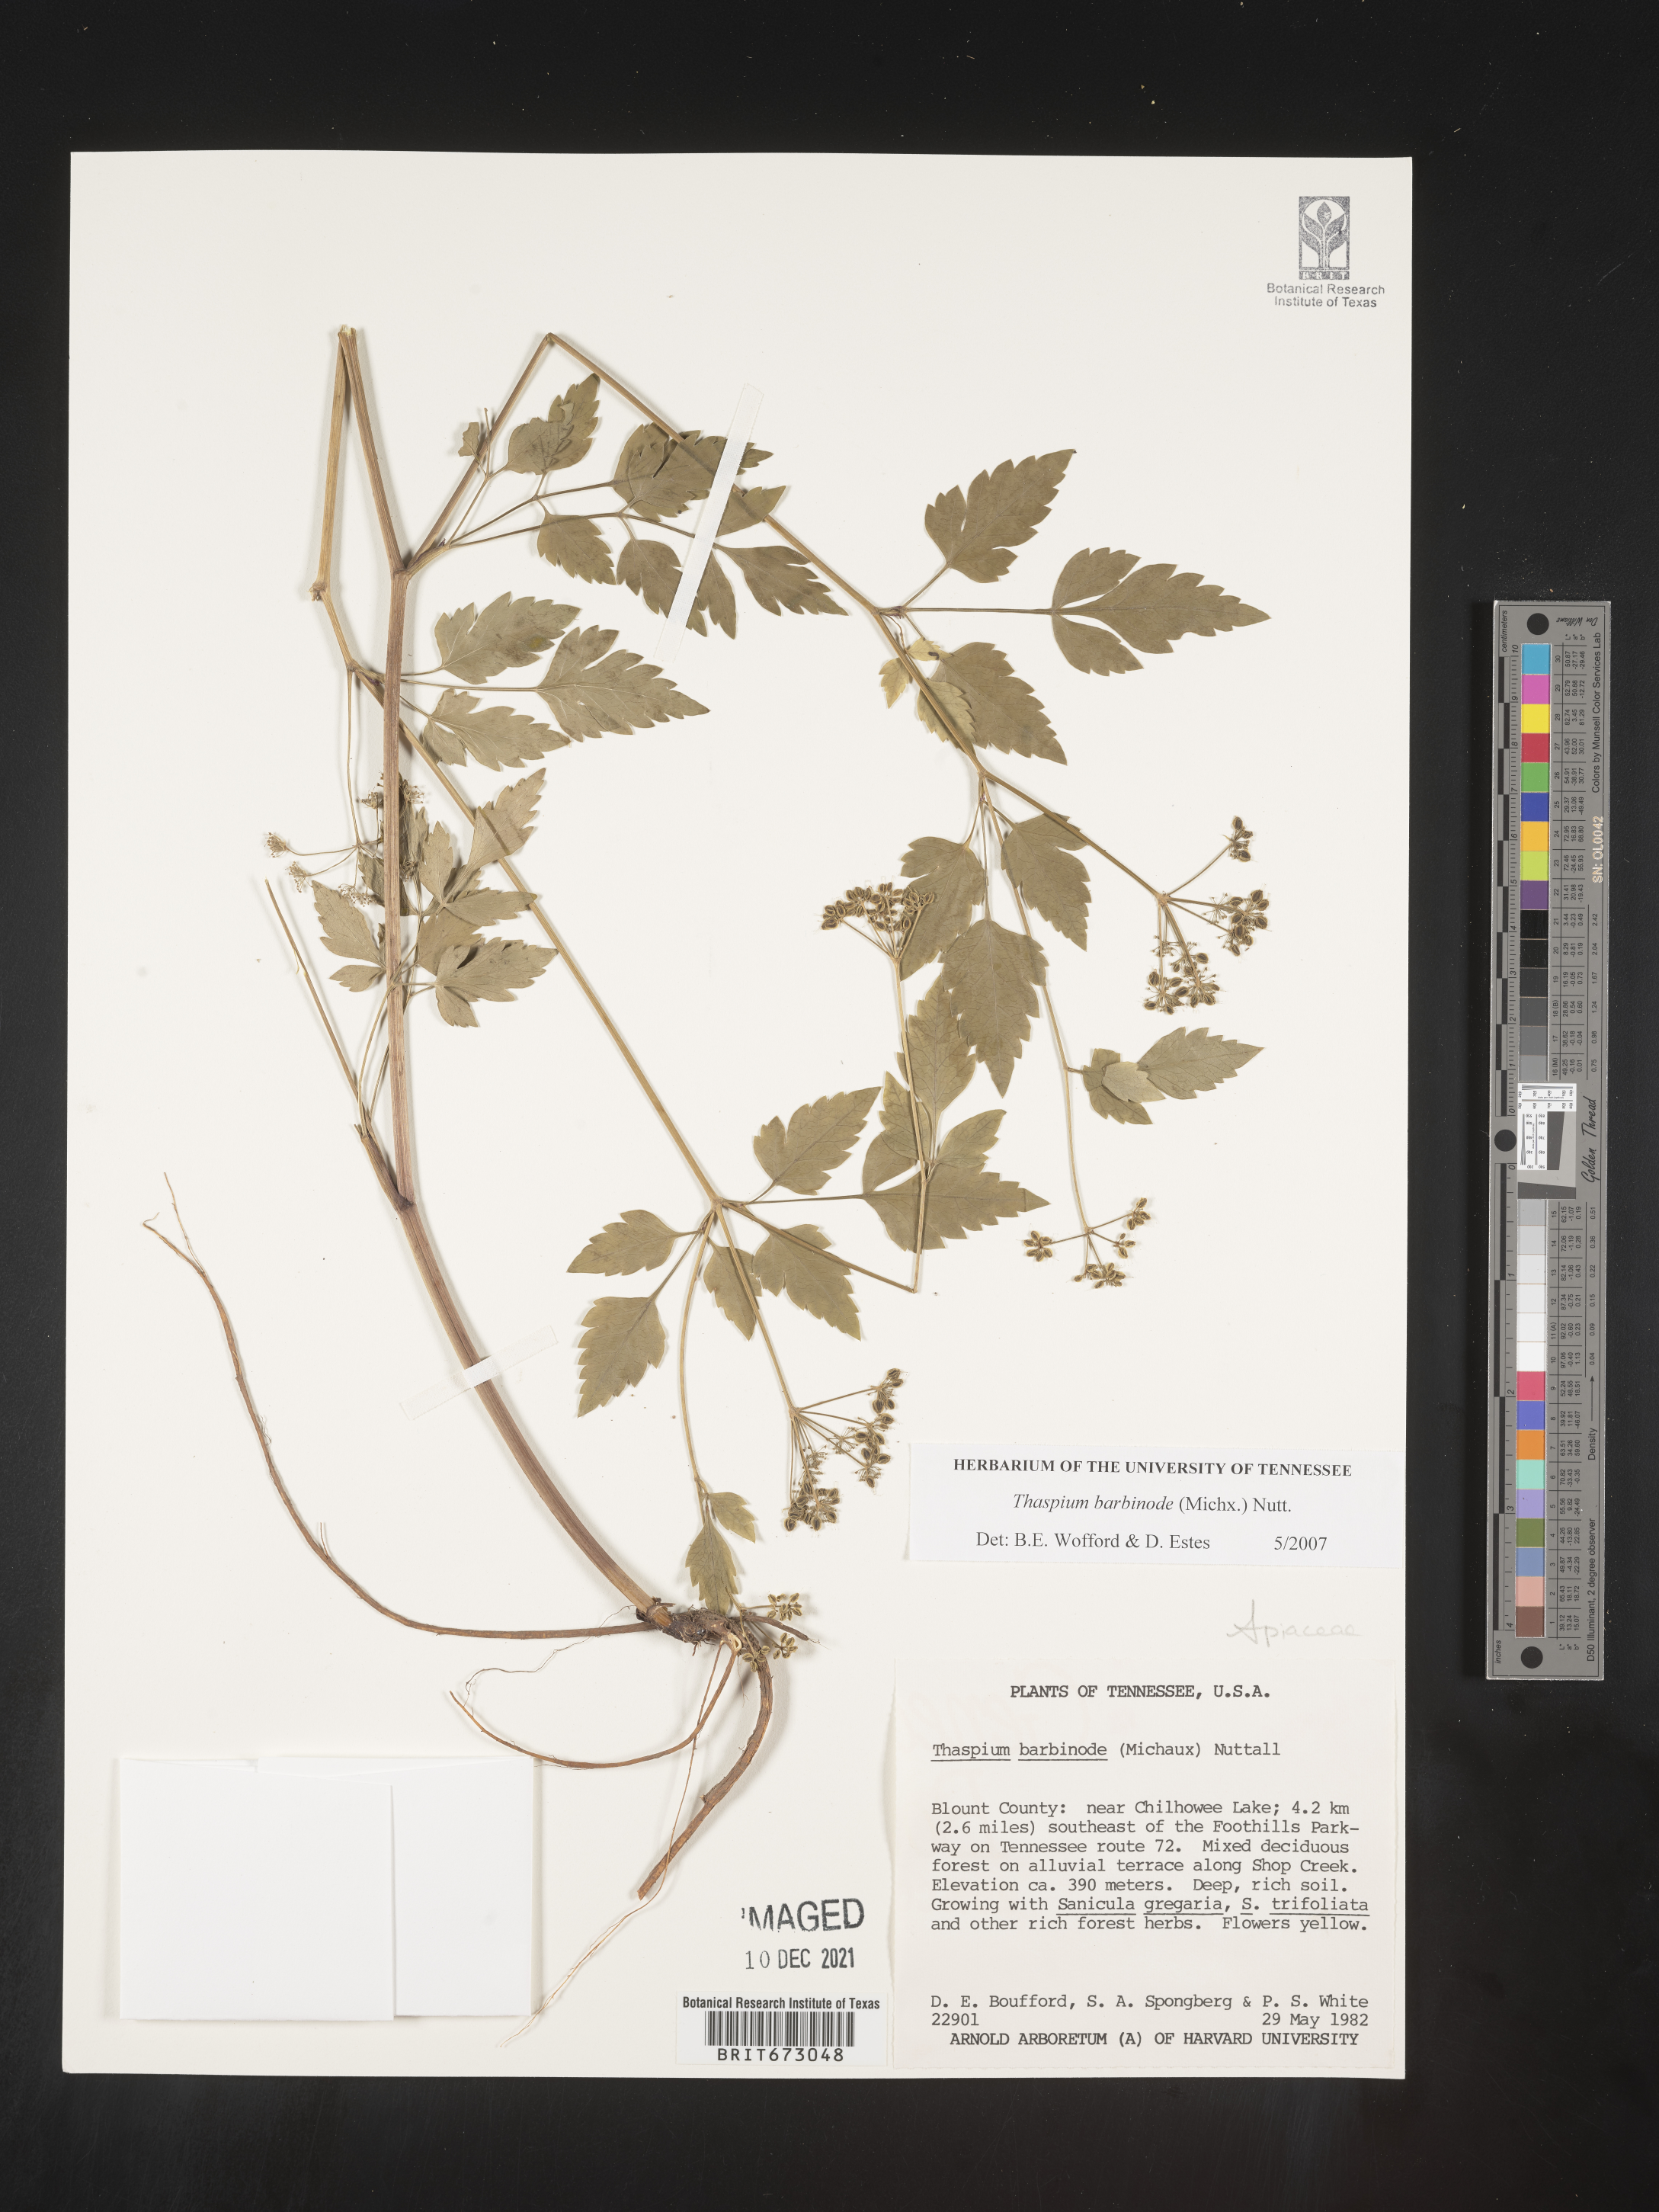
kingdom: Plantae
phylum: Tracheophyta
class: Magnoliopsida
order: Apiales
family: Apiaceae
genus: Thaspium
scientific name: Thaspium barbinode
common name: Bearded meadow-parsnip
